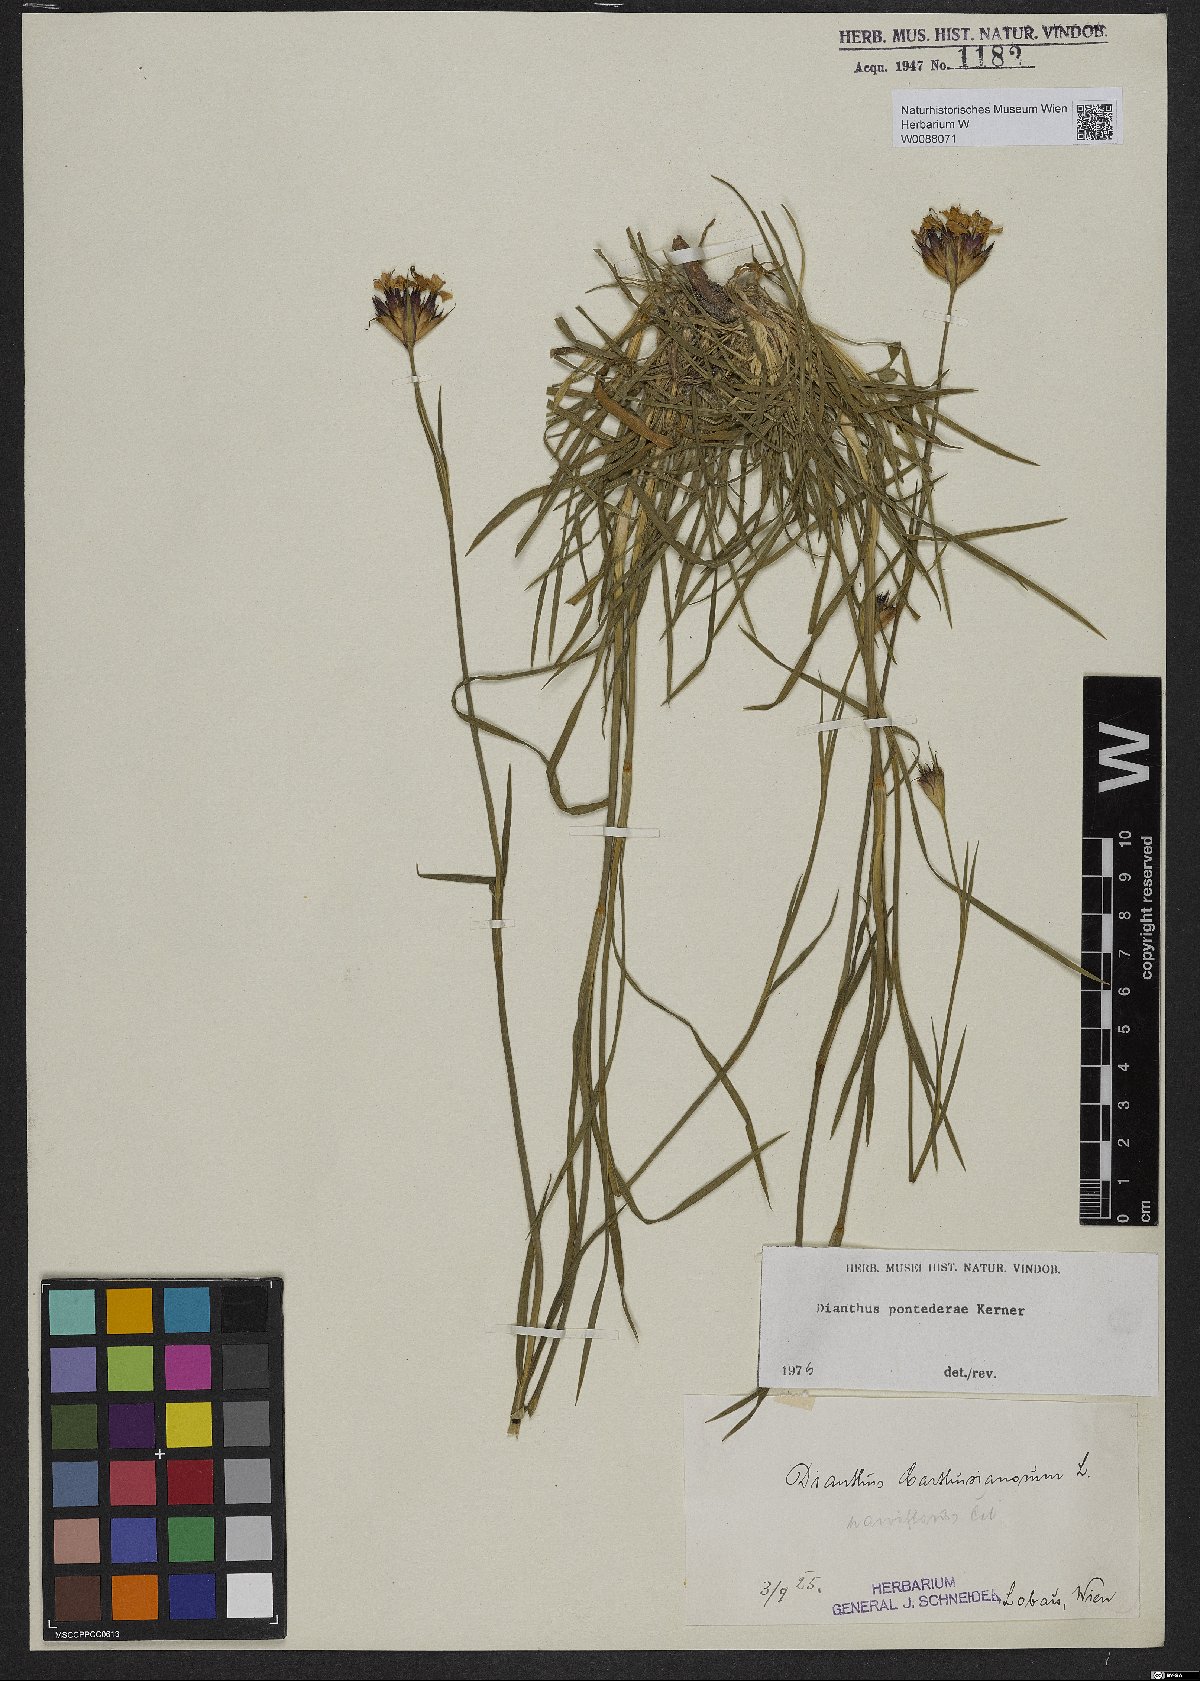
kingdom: Plantae
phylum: Tracheophyta
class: Magnoliopsida
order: Caryophyllales
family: Caryophyllaceae
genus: Dianthus
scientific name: Dianthus pontederae
